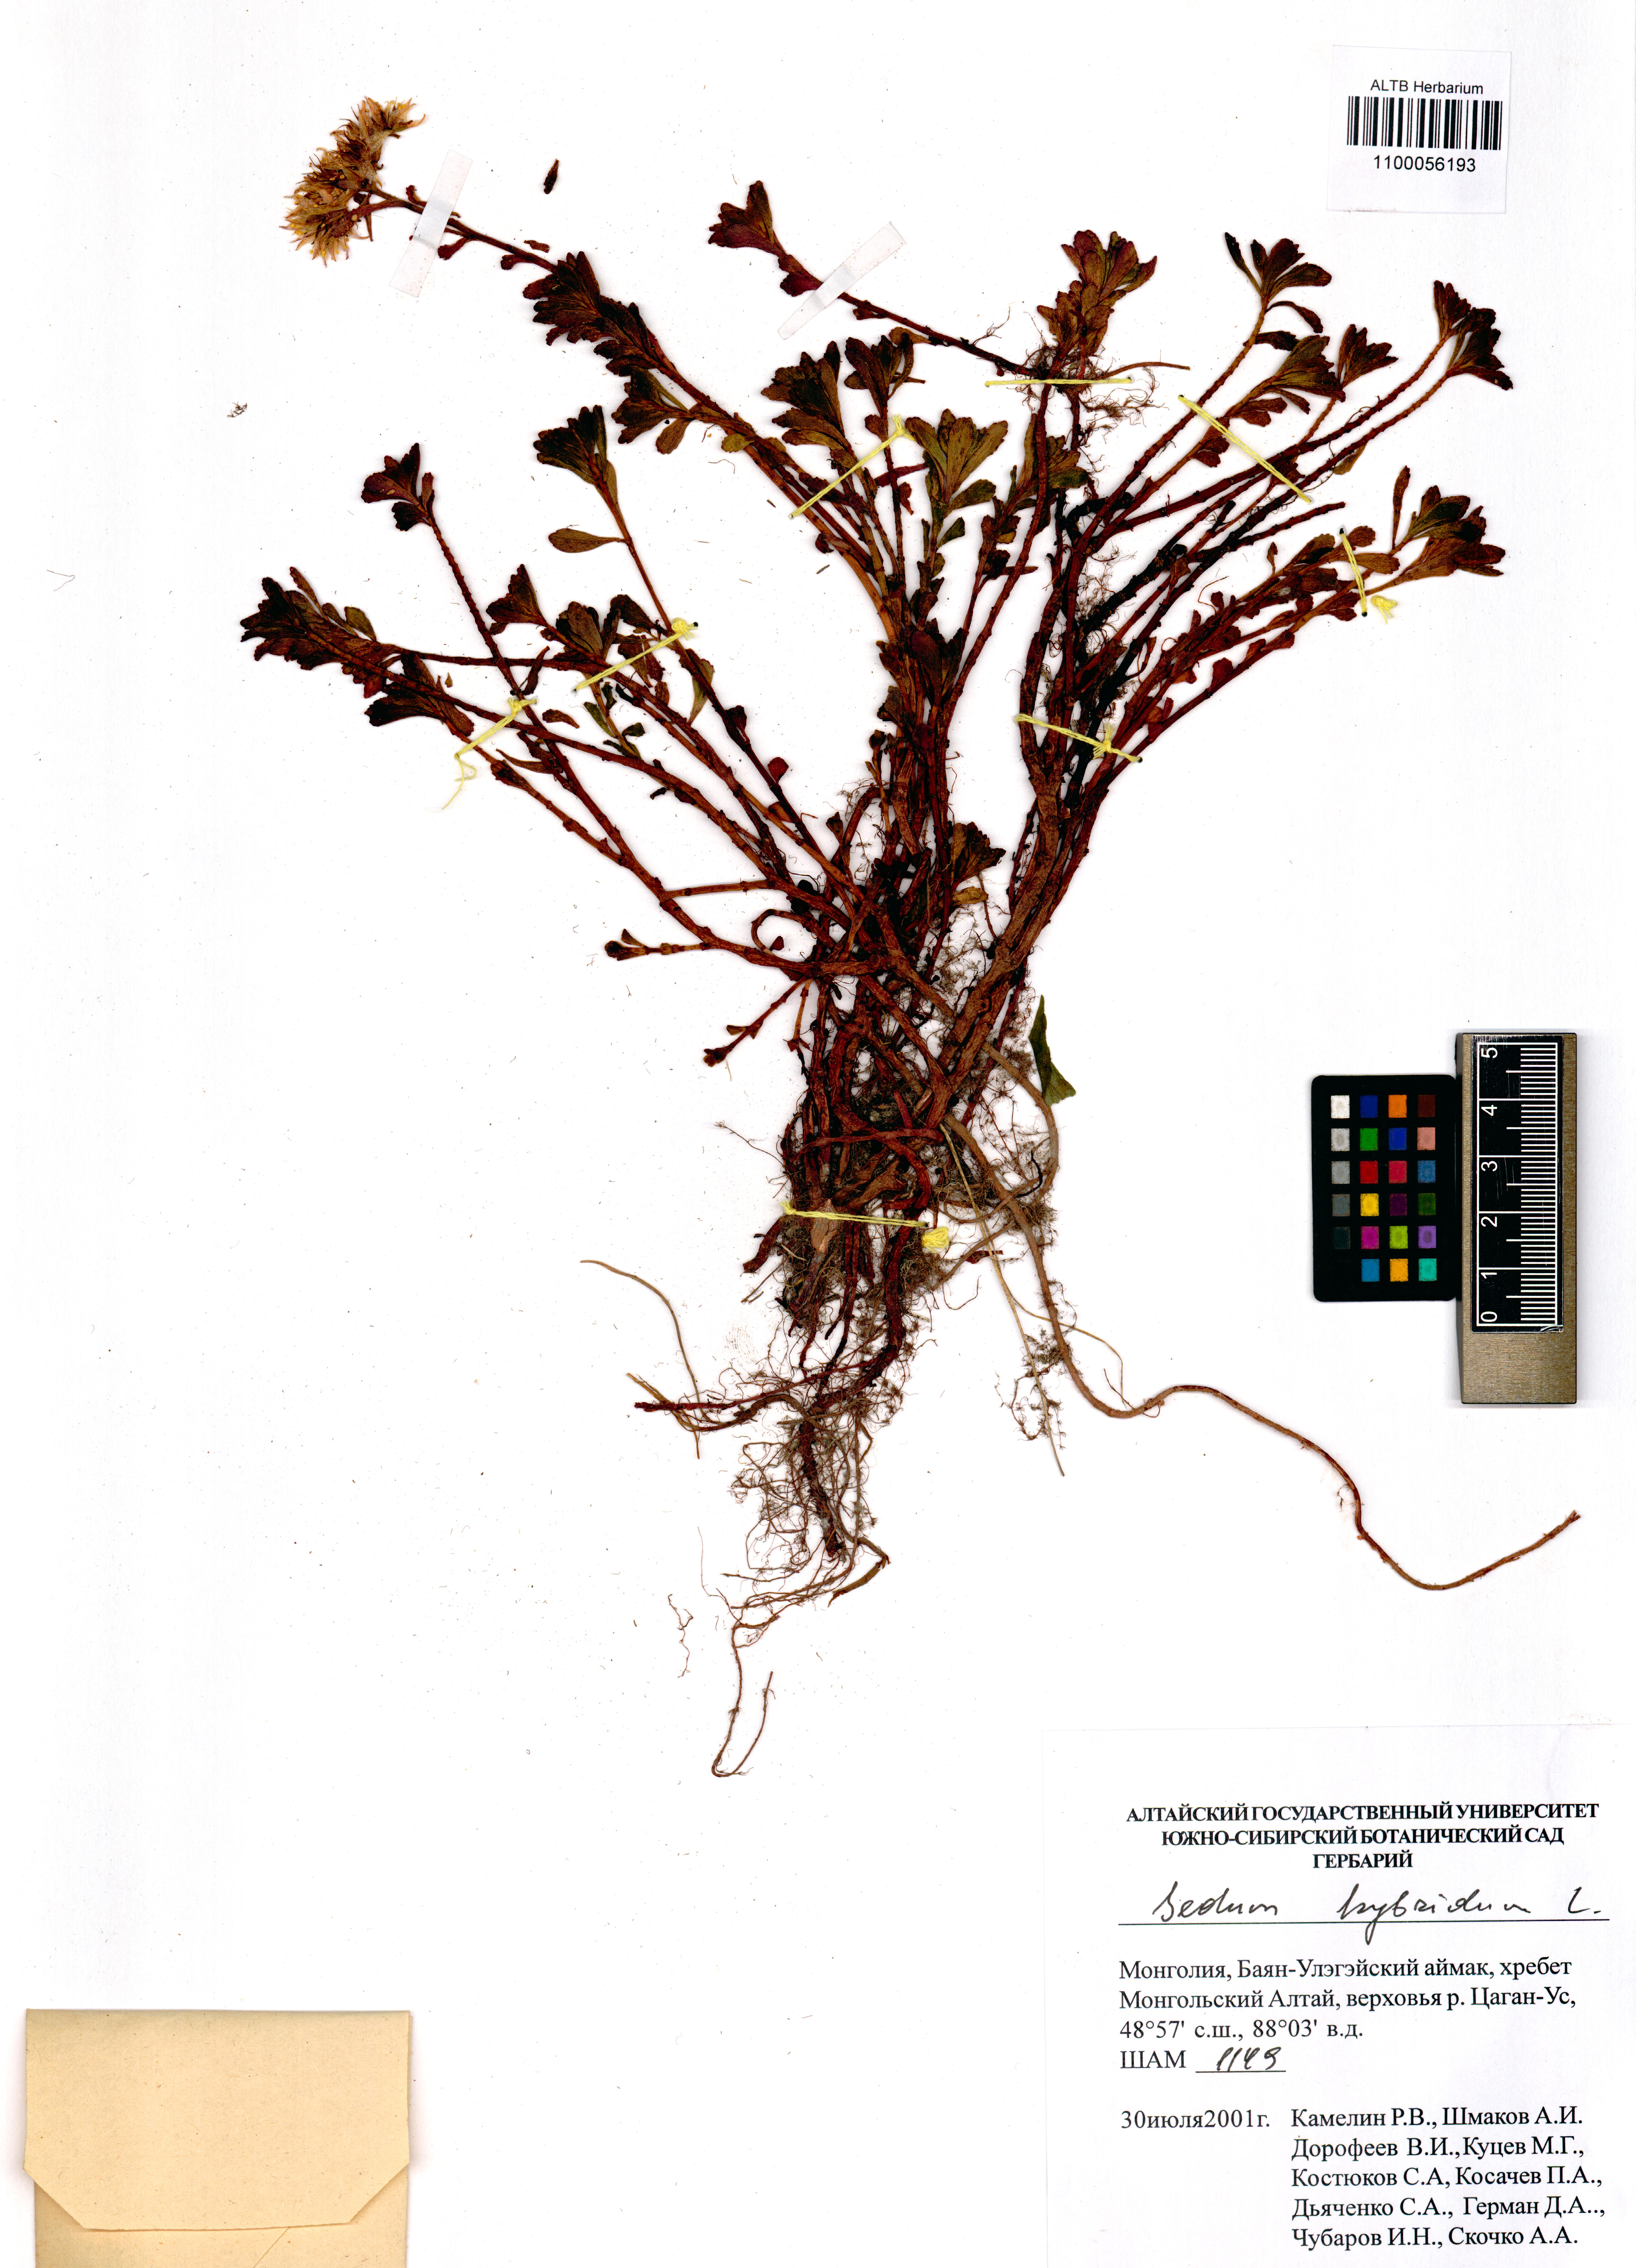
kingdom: Plantae
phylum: Tracheophyta
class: Magnoliopsida
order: Saxifragales
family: Crassulaceae
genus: Phedimus
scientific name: Phedimus hybridus
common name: Hybrid stonecrop
